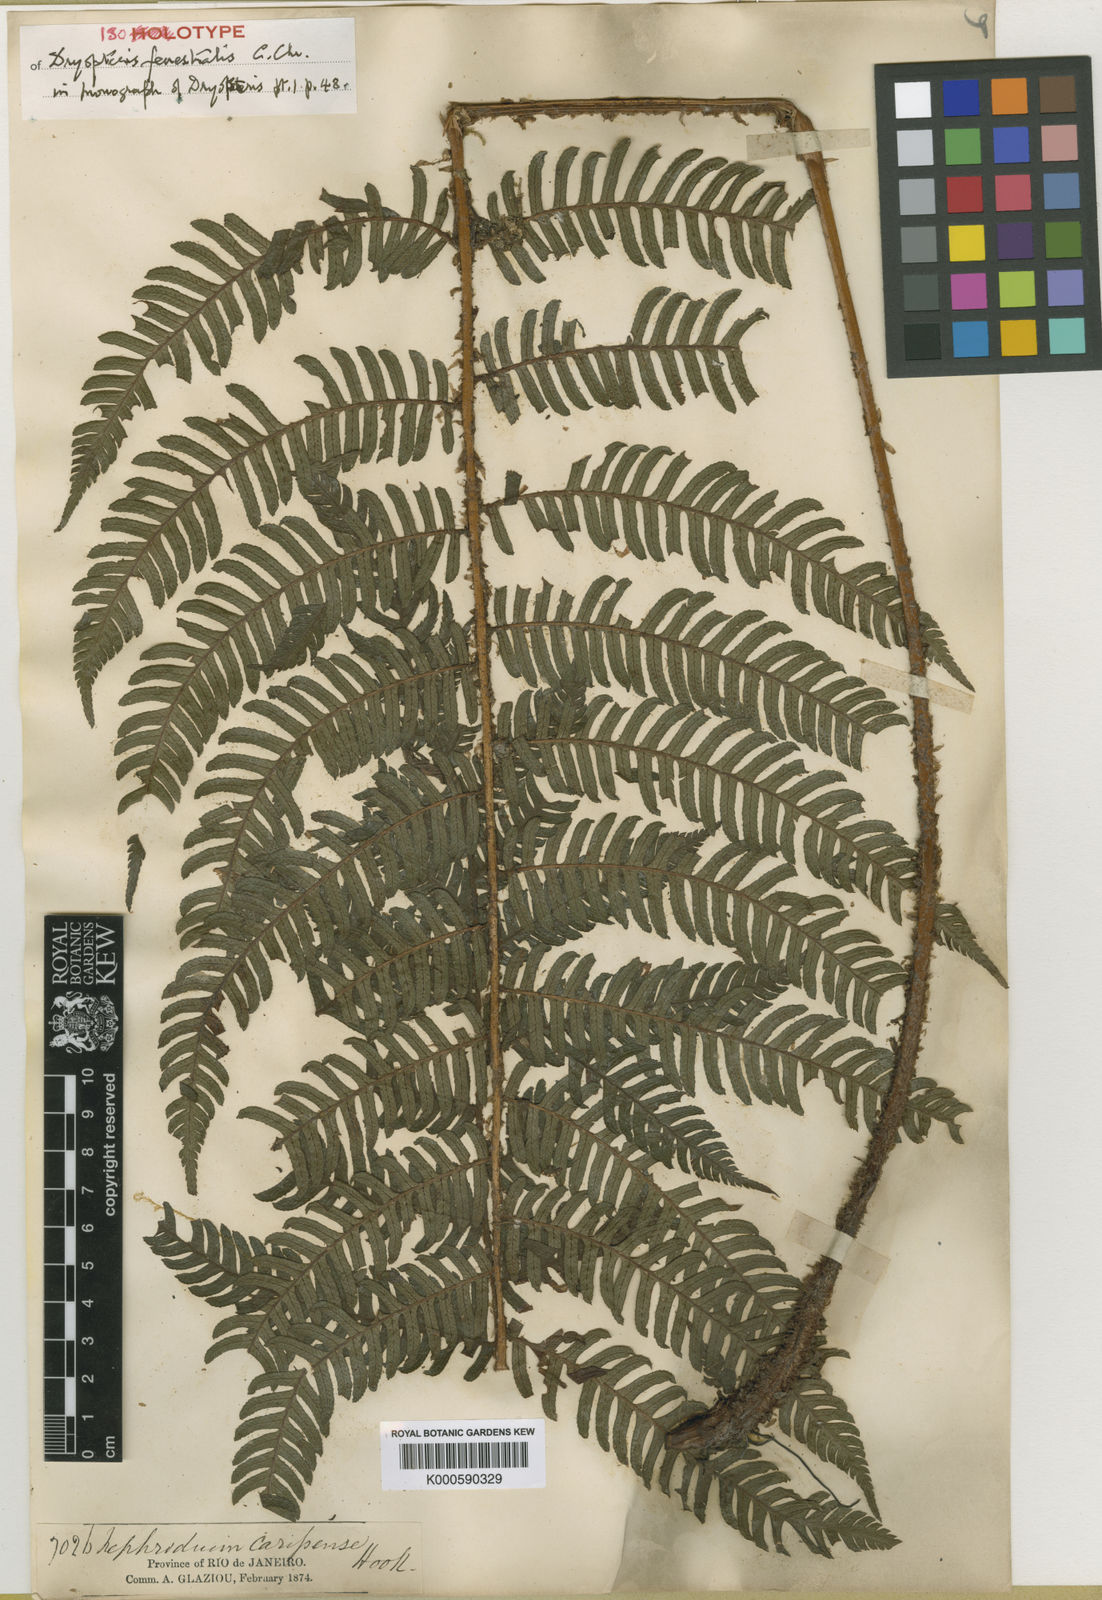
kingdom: Plantae
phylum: Tracheophyta
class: Polypodiopsida
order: Polypodiales
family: Dryopteridaceae
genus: Ctenitis
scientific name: Ctenitis fenestralis
